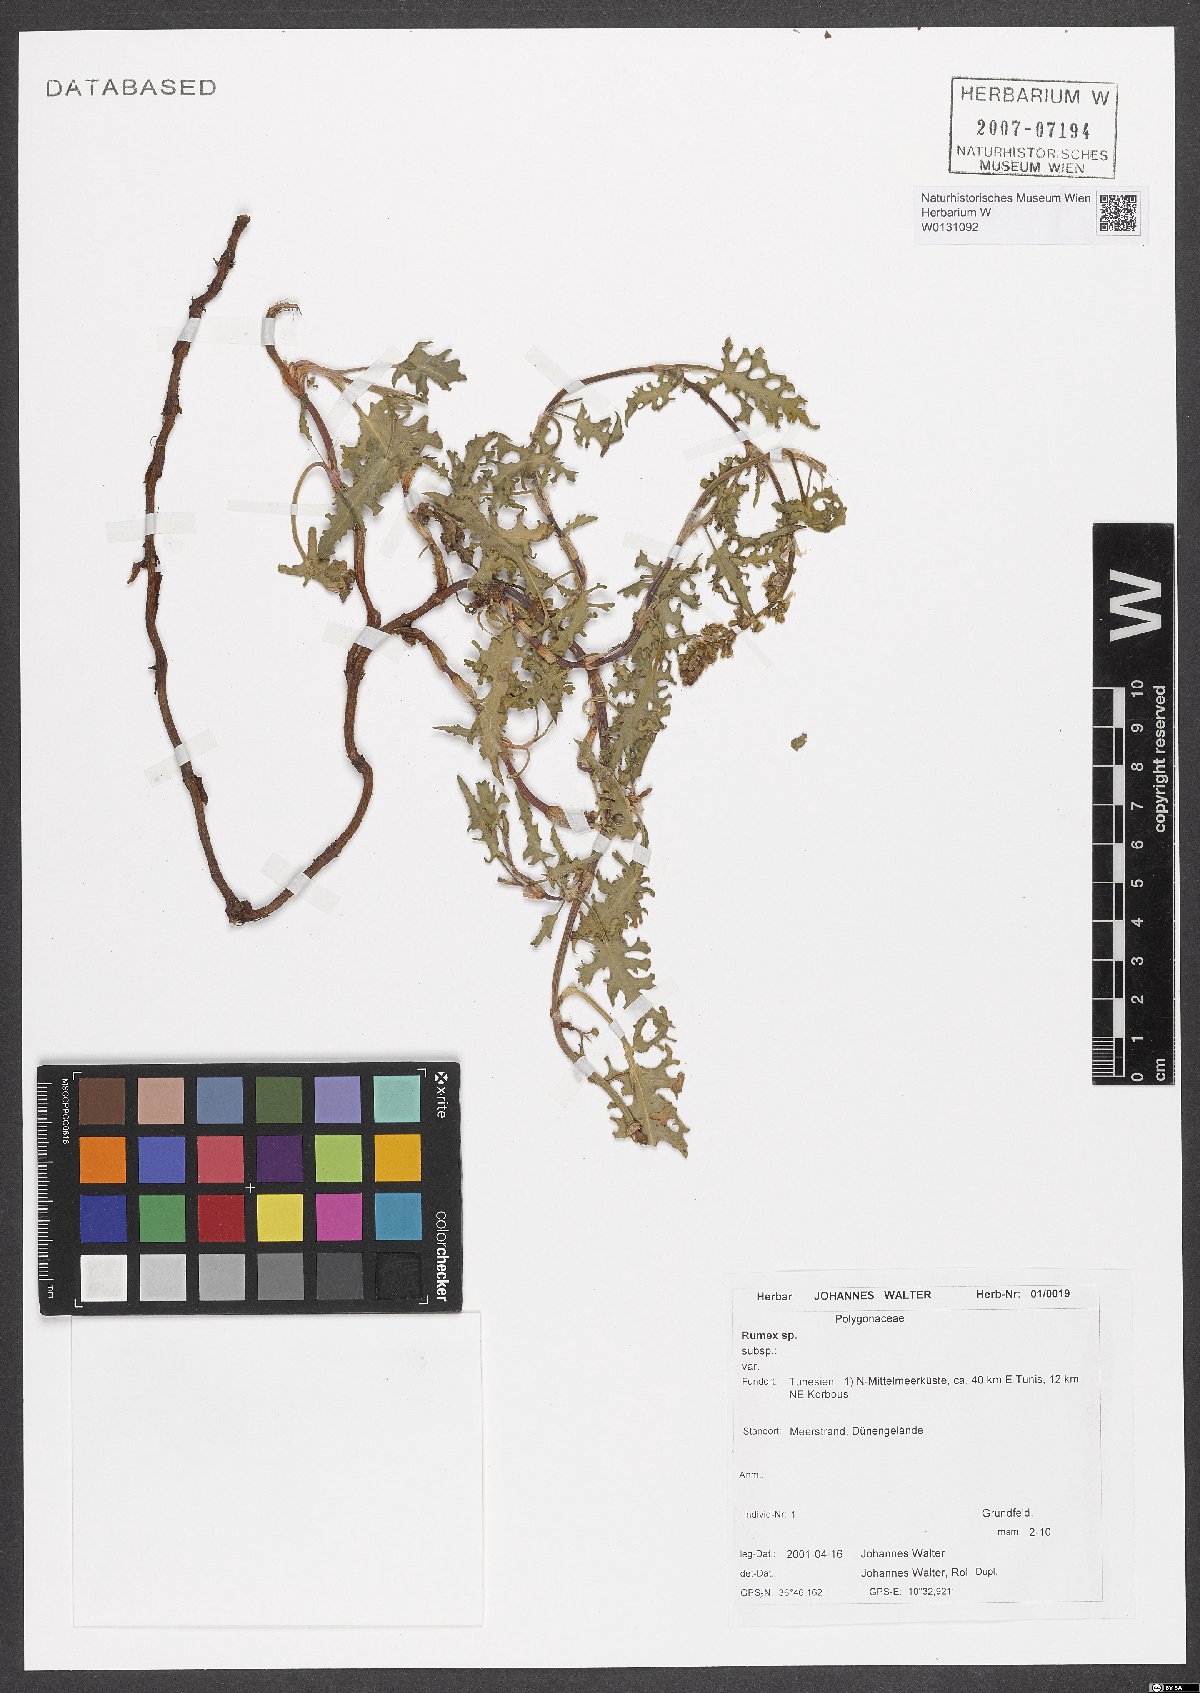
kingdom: Plantae
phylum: Tracheophyta
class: Magnoliopsida
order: Caryophyllales
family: Polygonaceae
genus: Rumex
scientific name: Rumex
